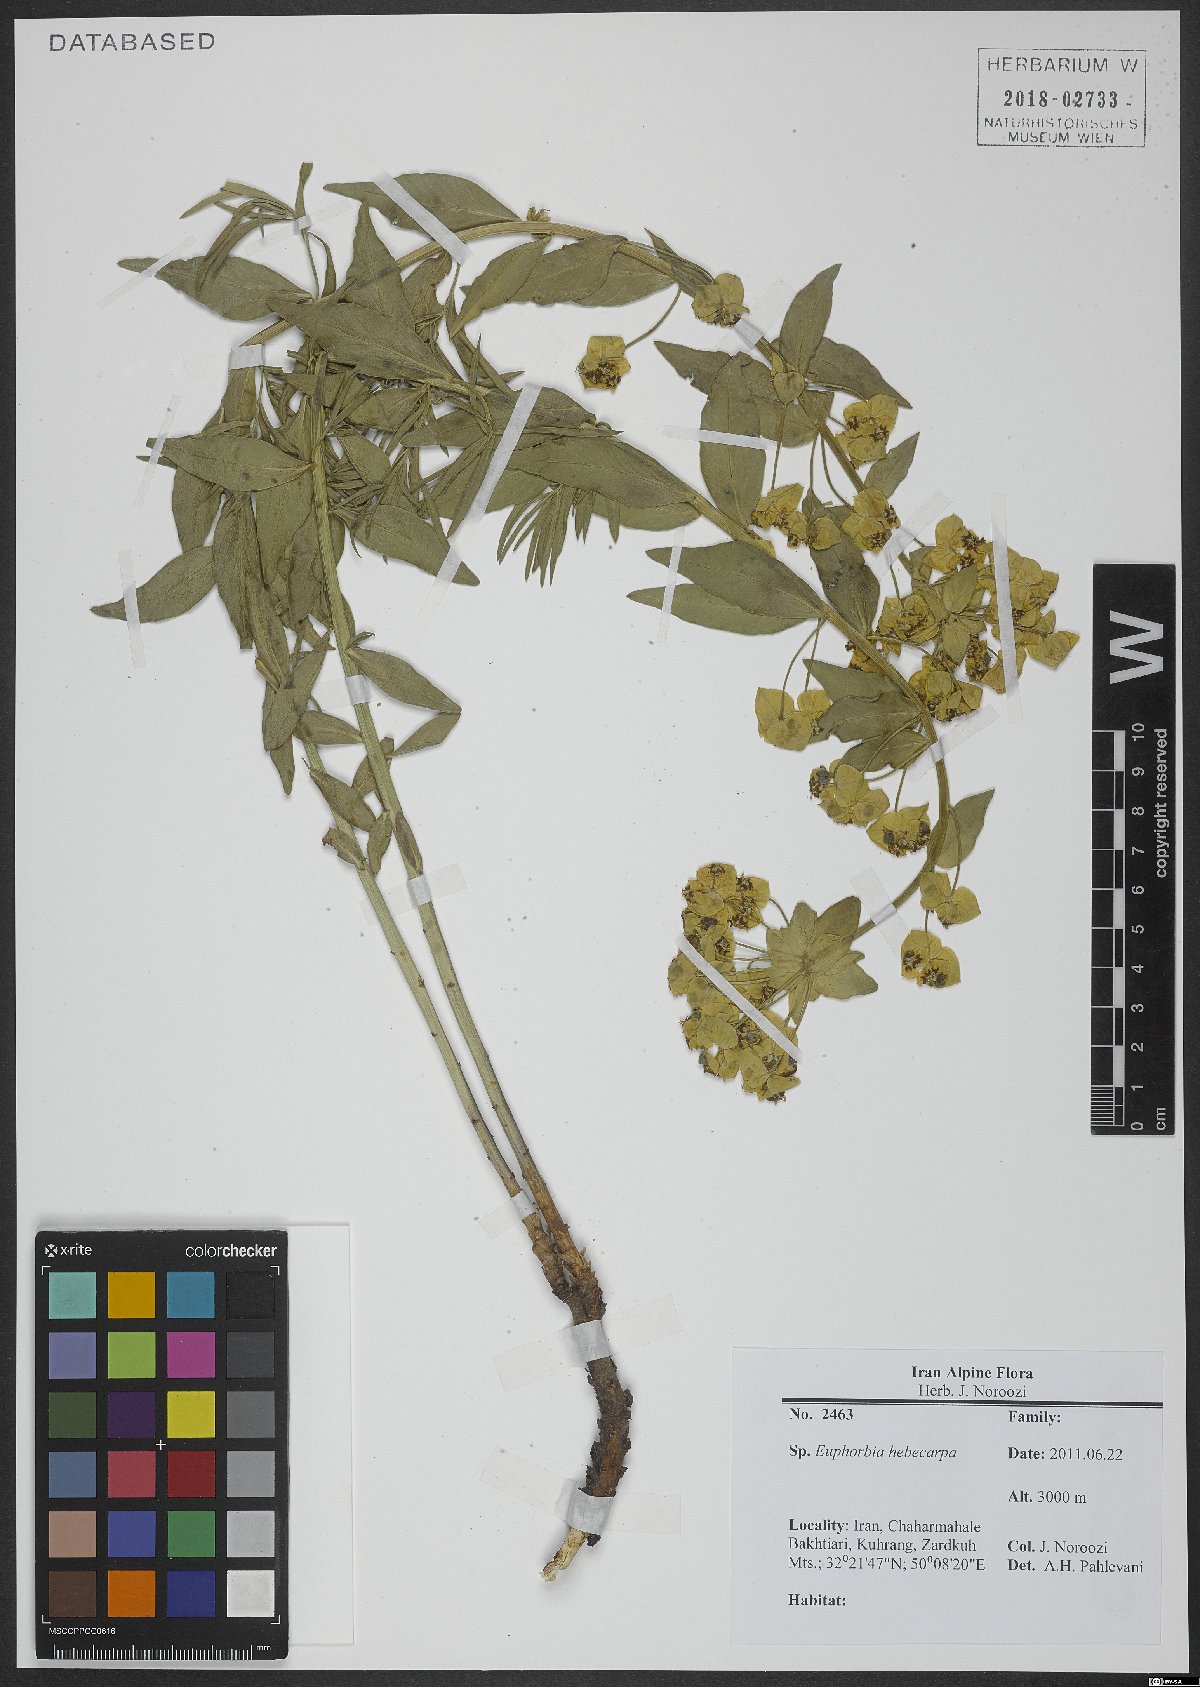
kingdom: Plantae
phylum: Tracheophyta
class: Magnoliopsida
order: Malpighiales
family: Euphorbiaceae
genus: Euphorbia
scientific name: Euphorbia hebecarpa
